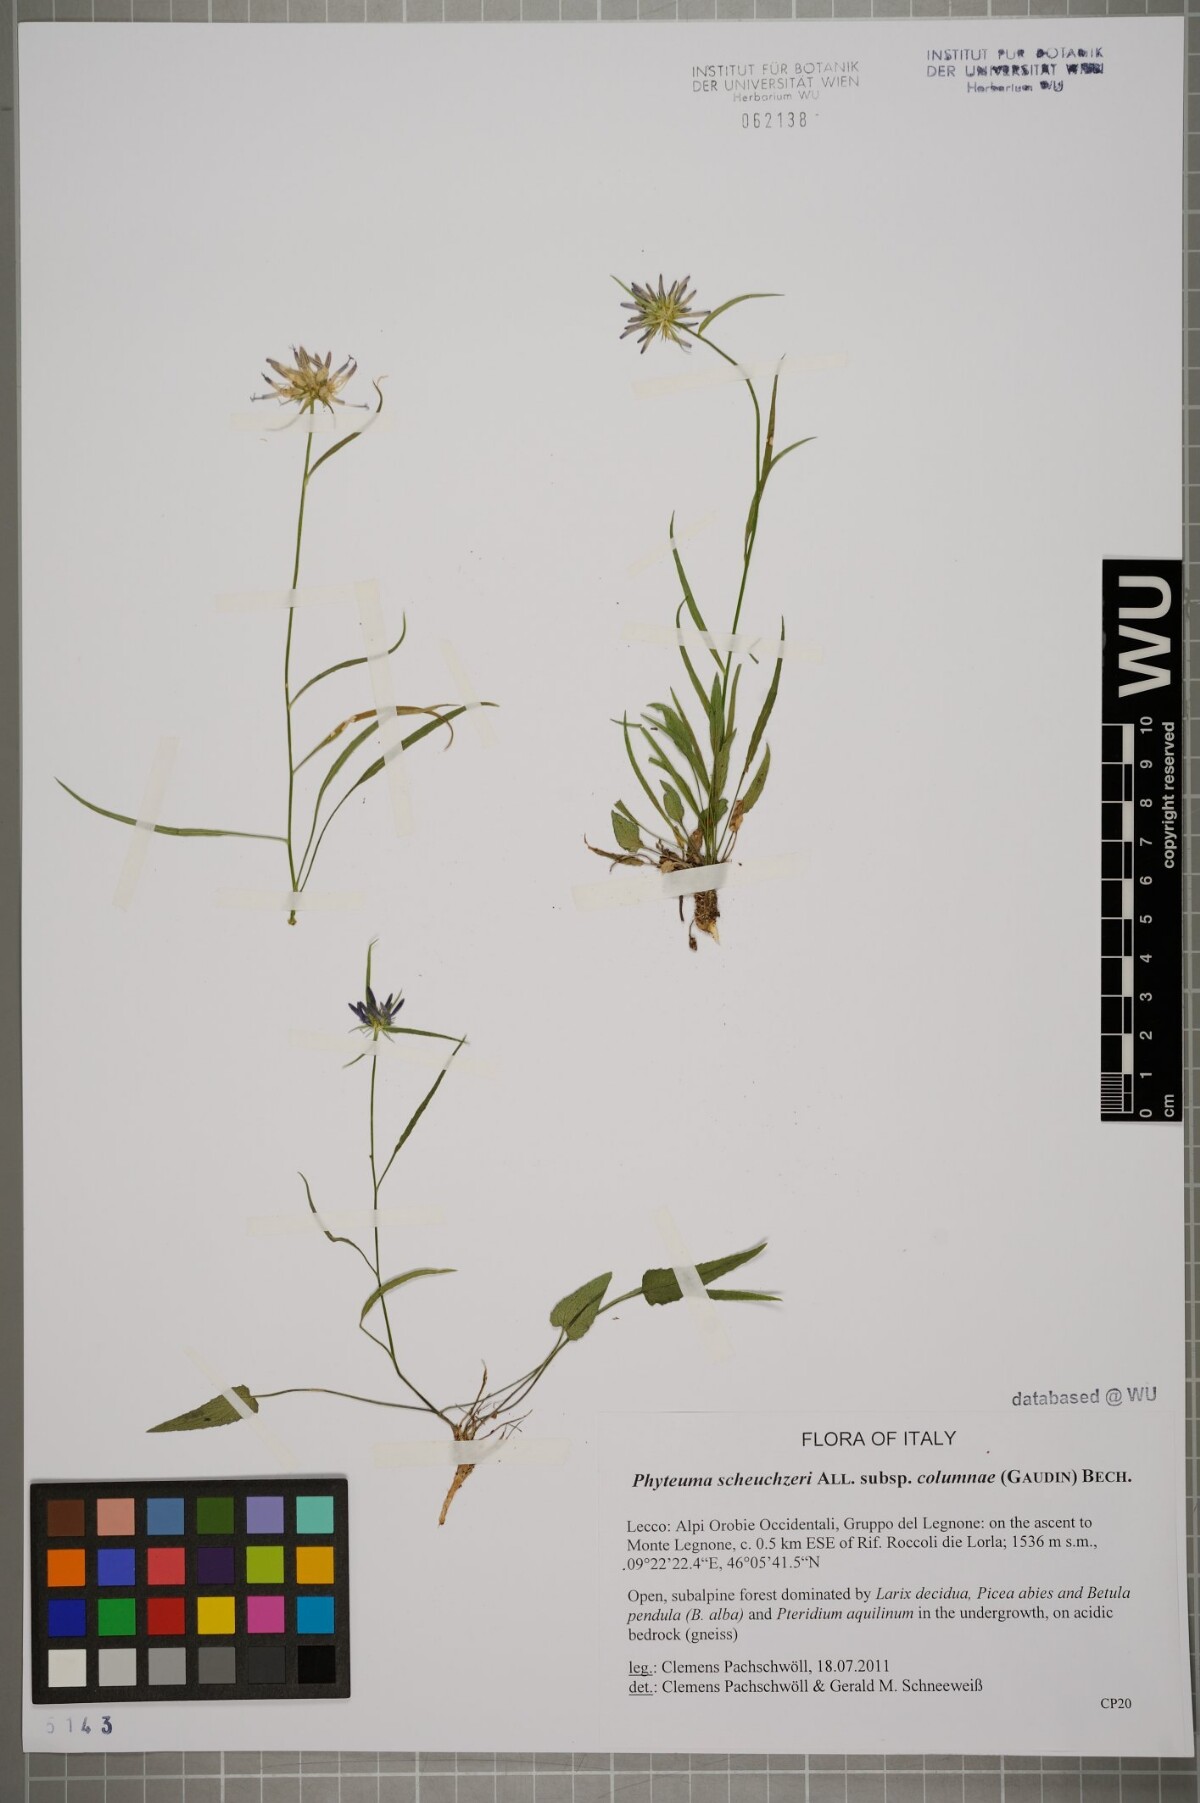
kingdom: Plantae
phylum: Tracheophyta
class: Magnoliopsida
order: Asterales
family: Campanulaceae
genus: Phyteuma
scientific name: Phyteuma scheuchzeri
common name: Oxford rampion
